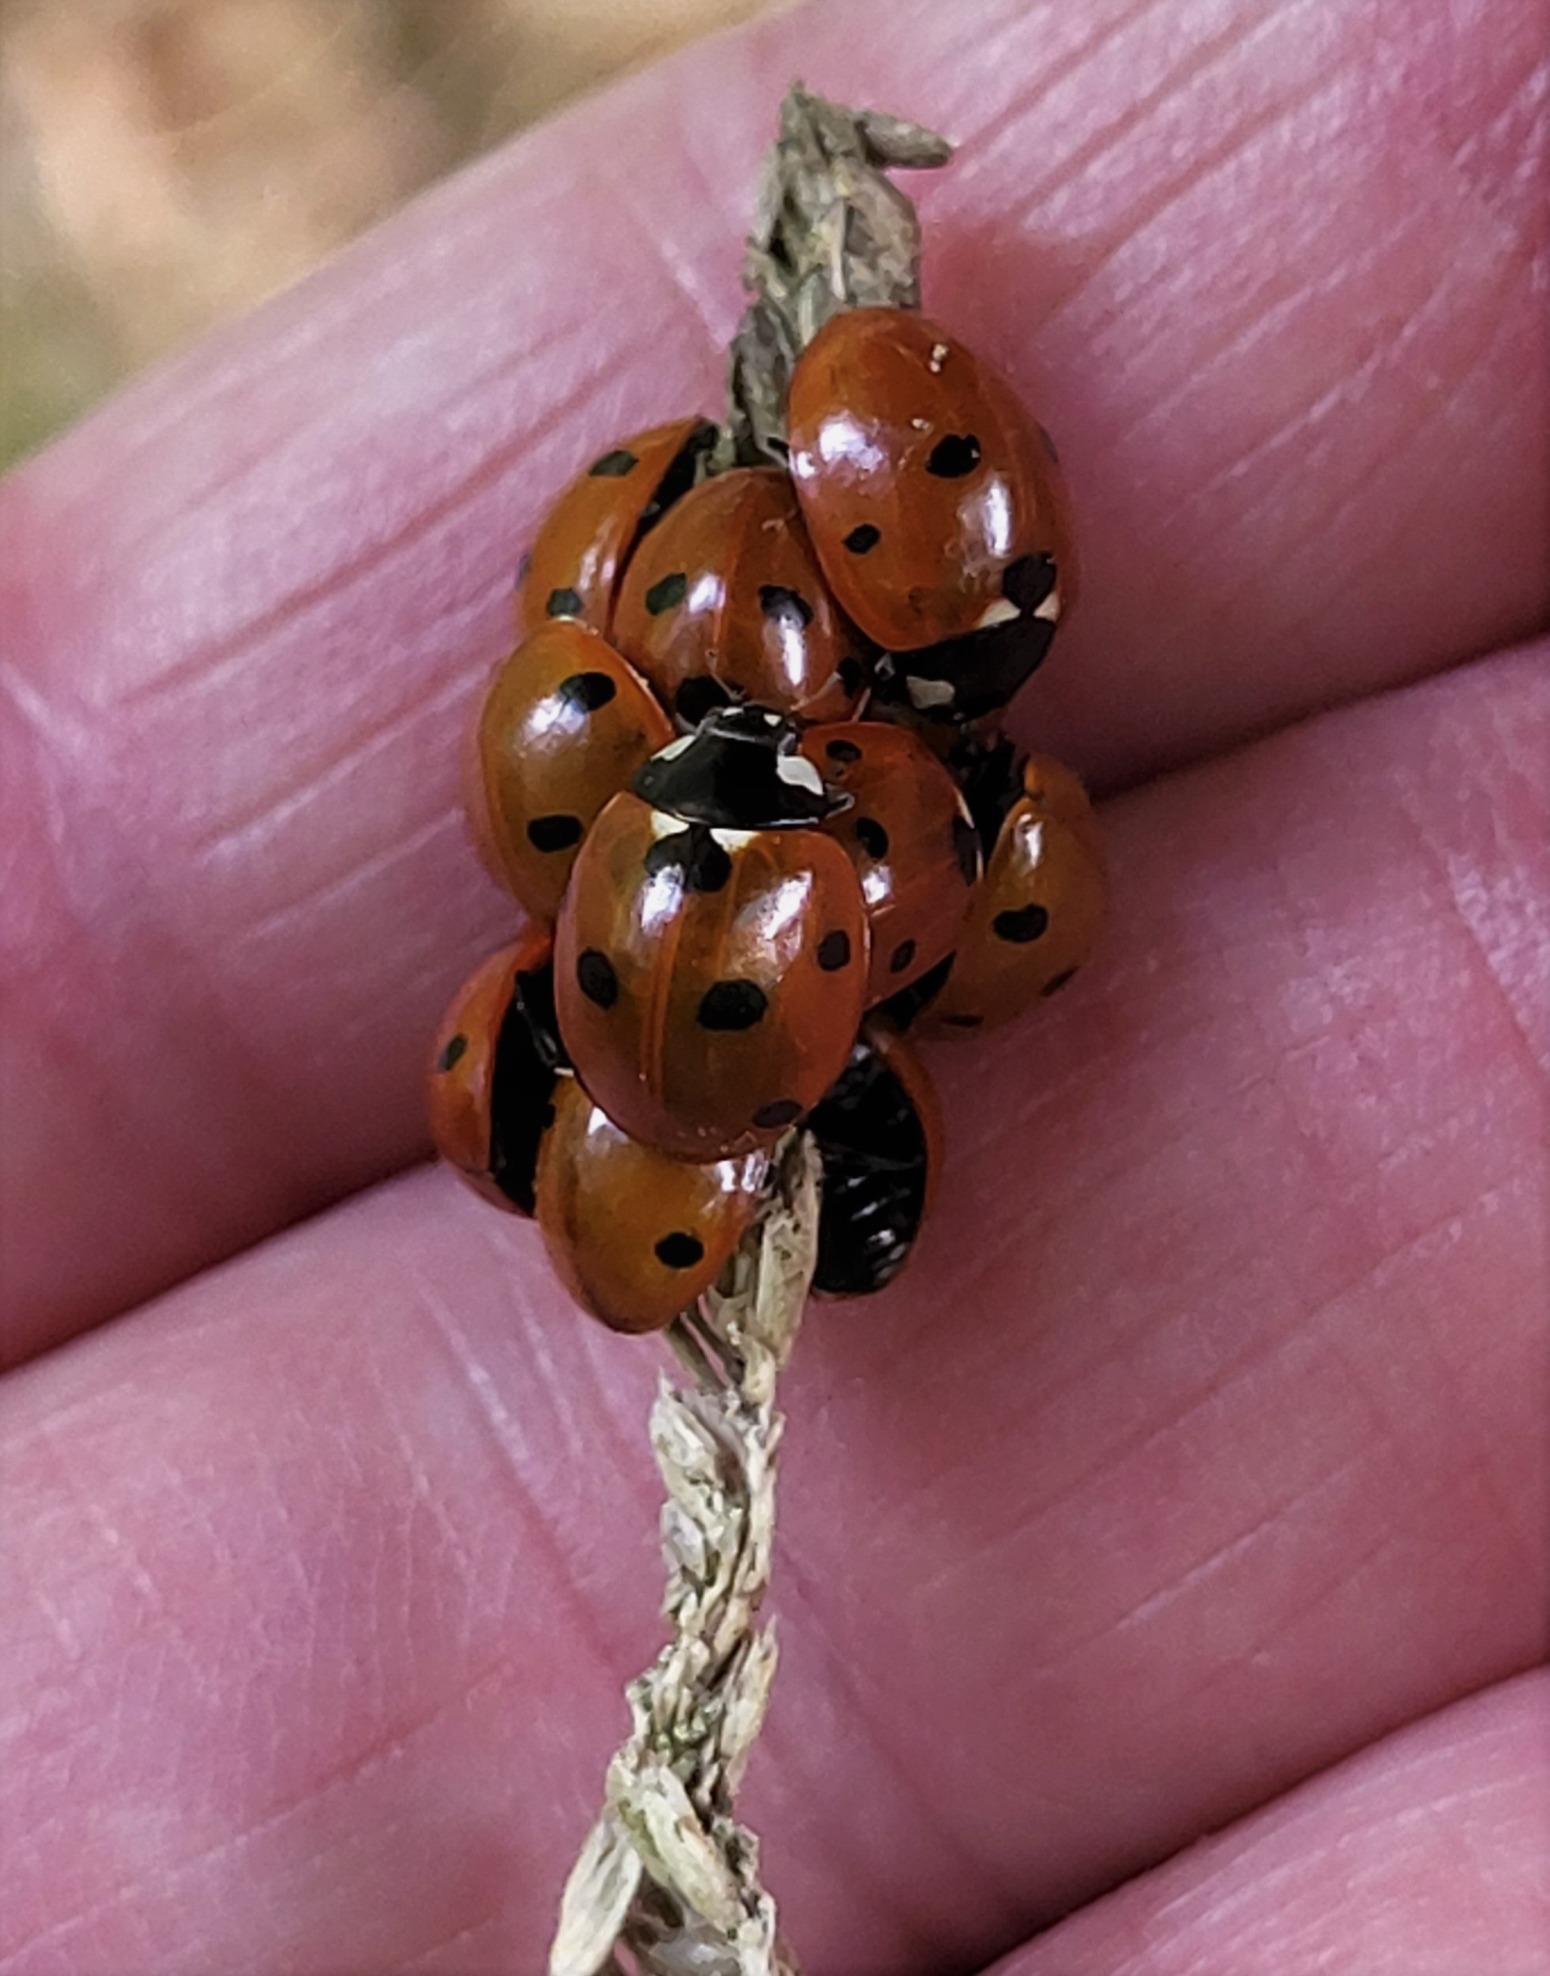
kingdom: Animalia
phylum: Arthropoda
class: Insecta
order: Coleoptera
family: Coccinellidae
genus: Coccinella
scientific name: Coccinella septempunctata
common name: Syvplettet mariehøne
